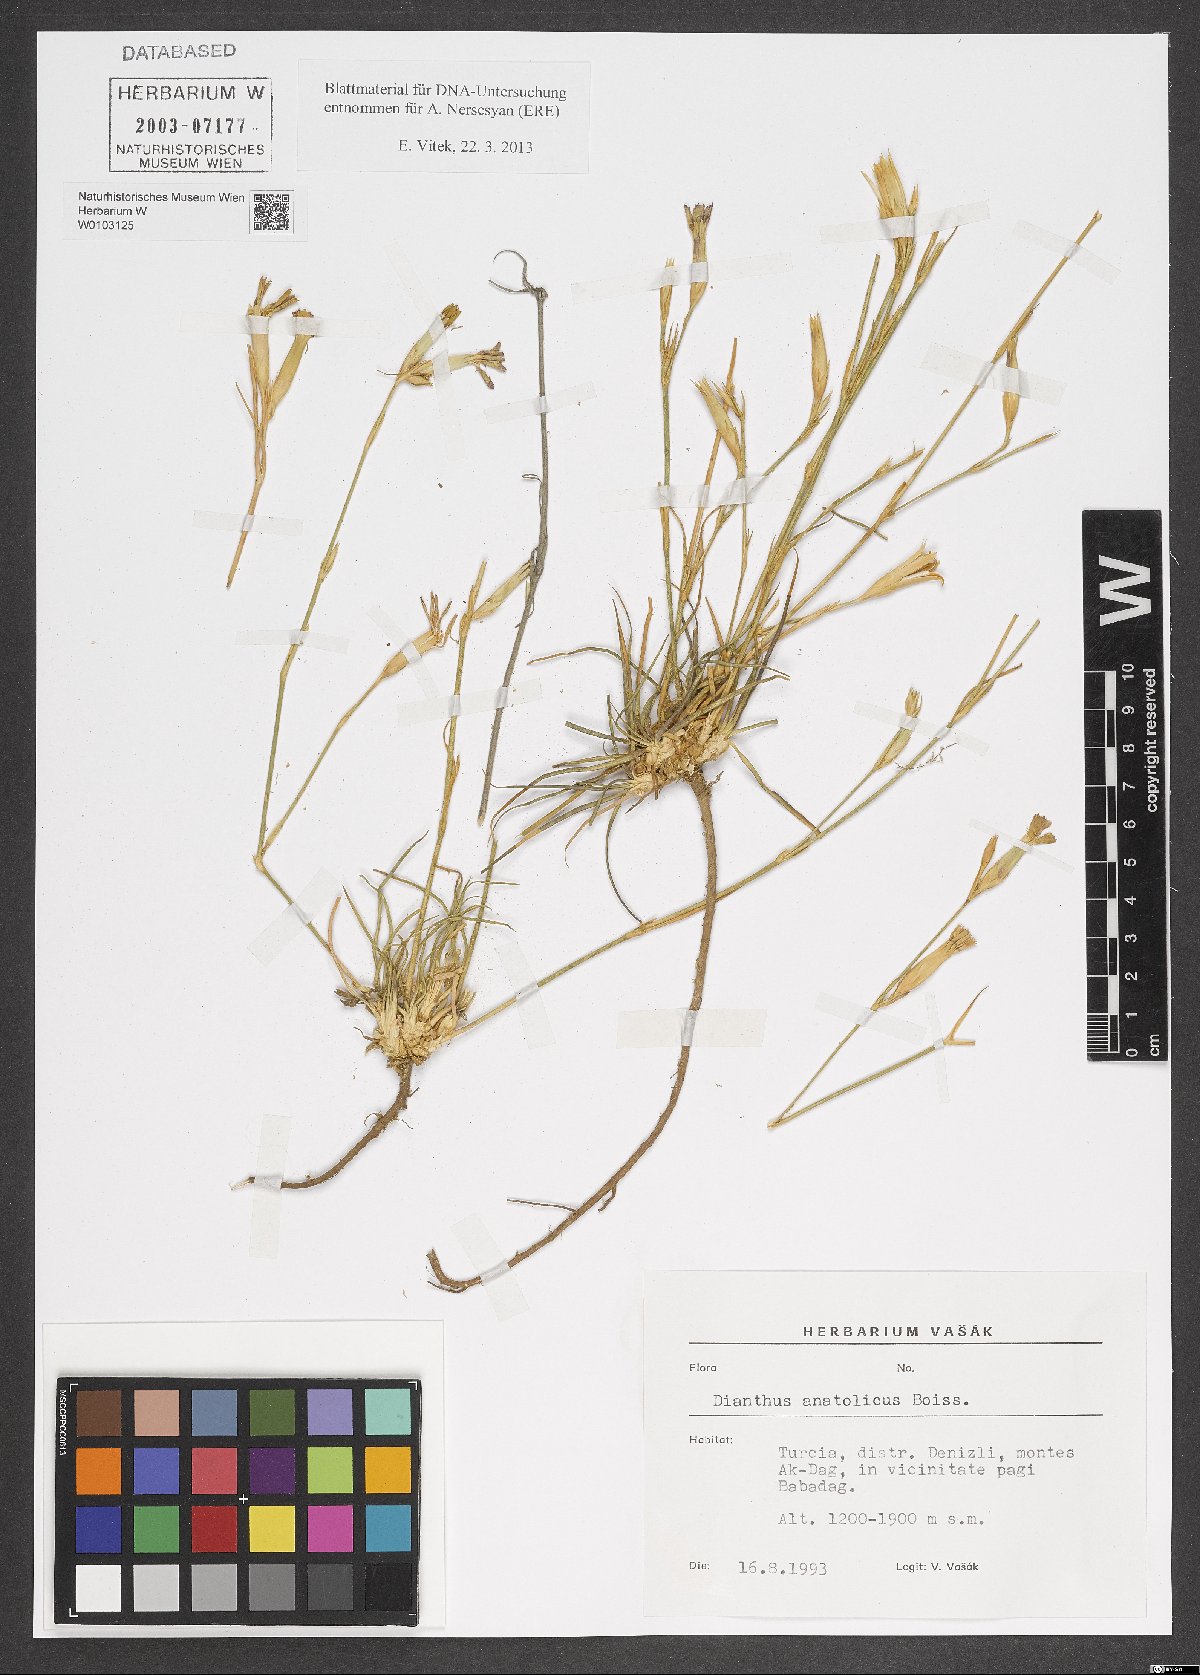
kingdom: Plantae
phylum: Tracheophyta
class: Magnoliopsida
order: Caryophyllales
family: Caryophyllaceae
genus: Dianthus
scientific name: Dianthus anatolicus
